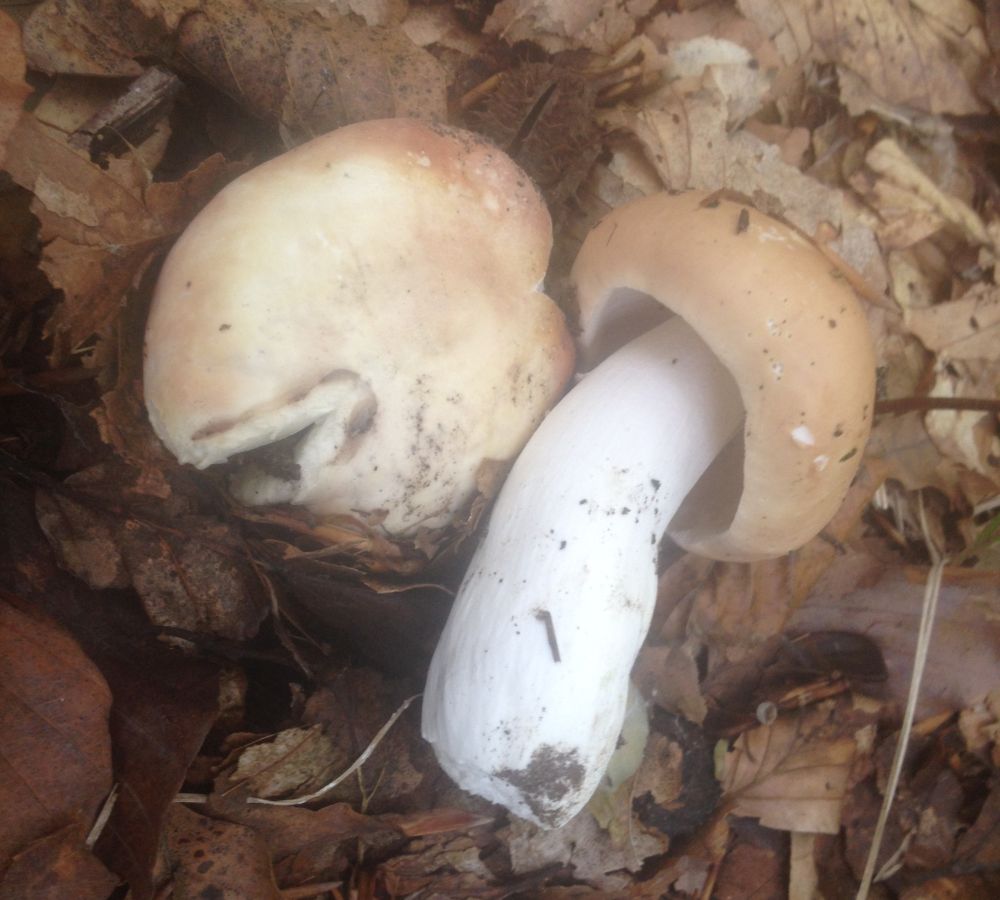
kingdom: Fungi
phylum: Basidiomycota
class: Agaricomycetes
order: Russulales
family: Russulaceae
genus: Russula
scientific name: Russula violeipes
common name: ferskengul skørhat
